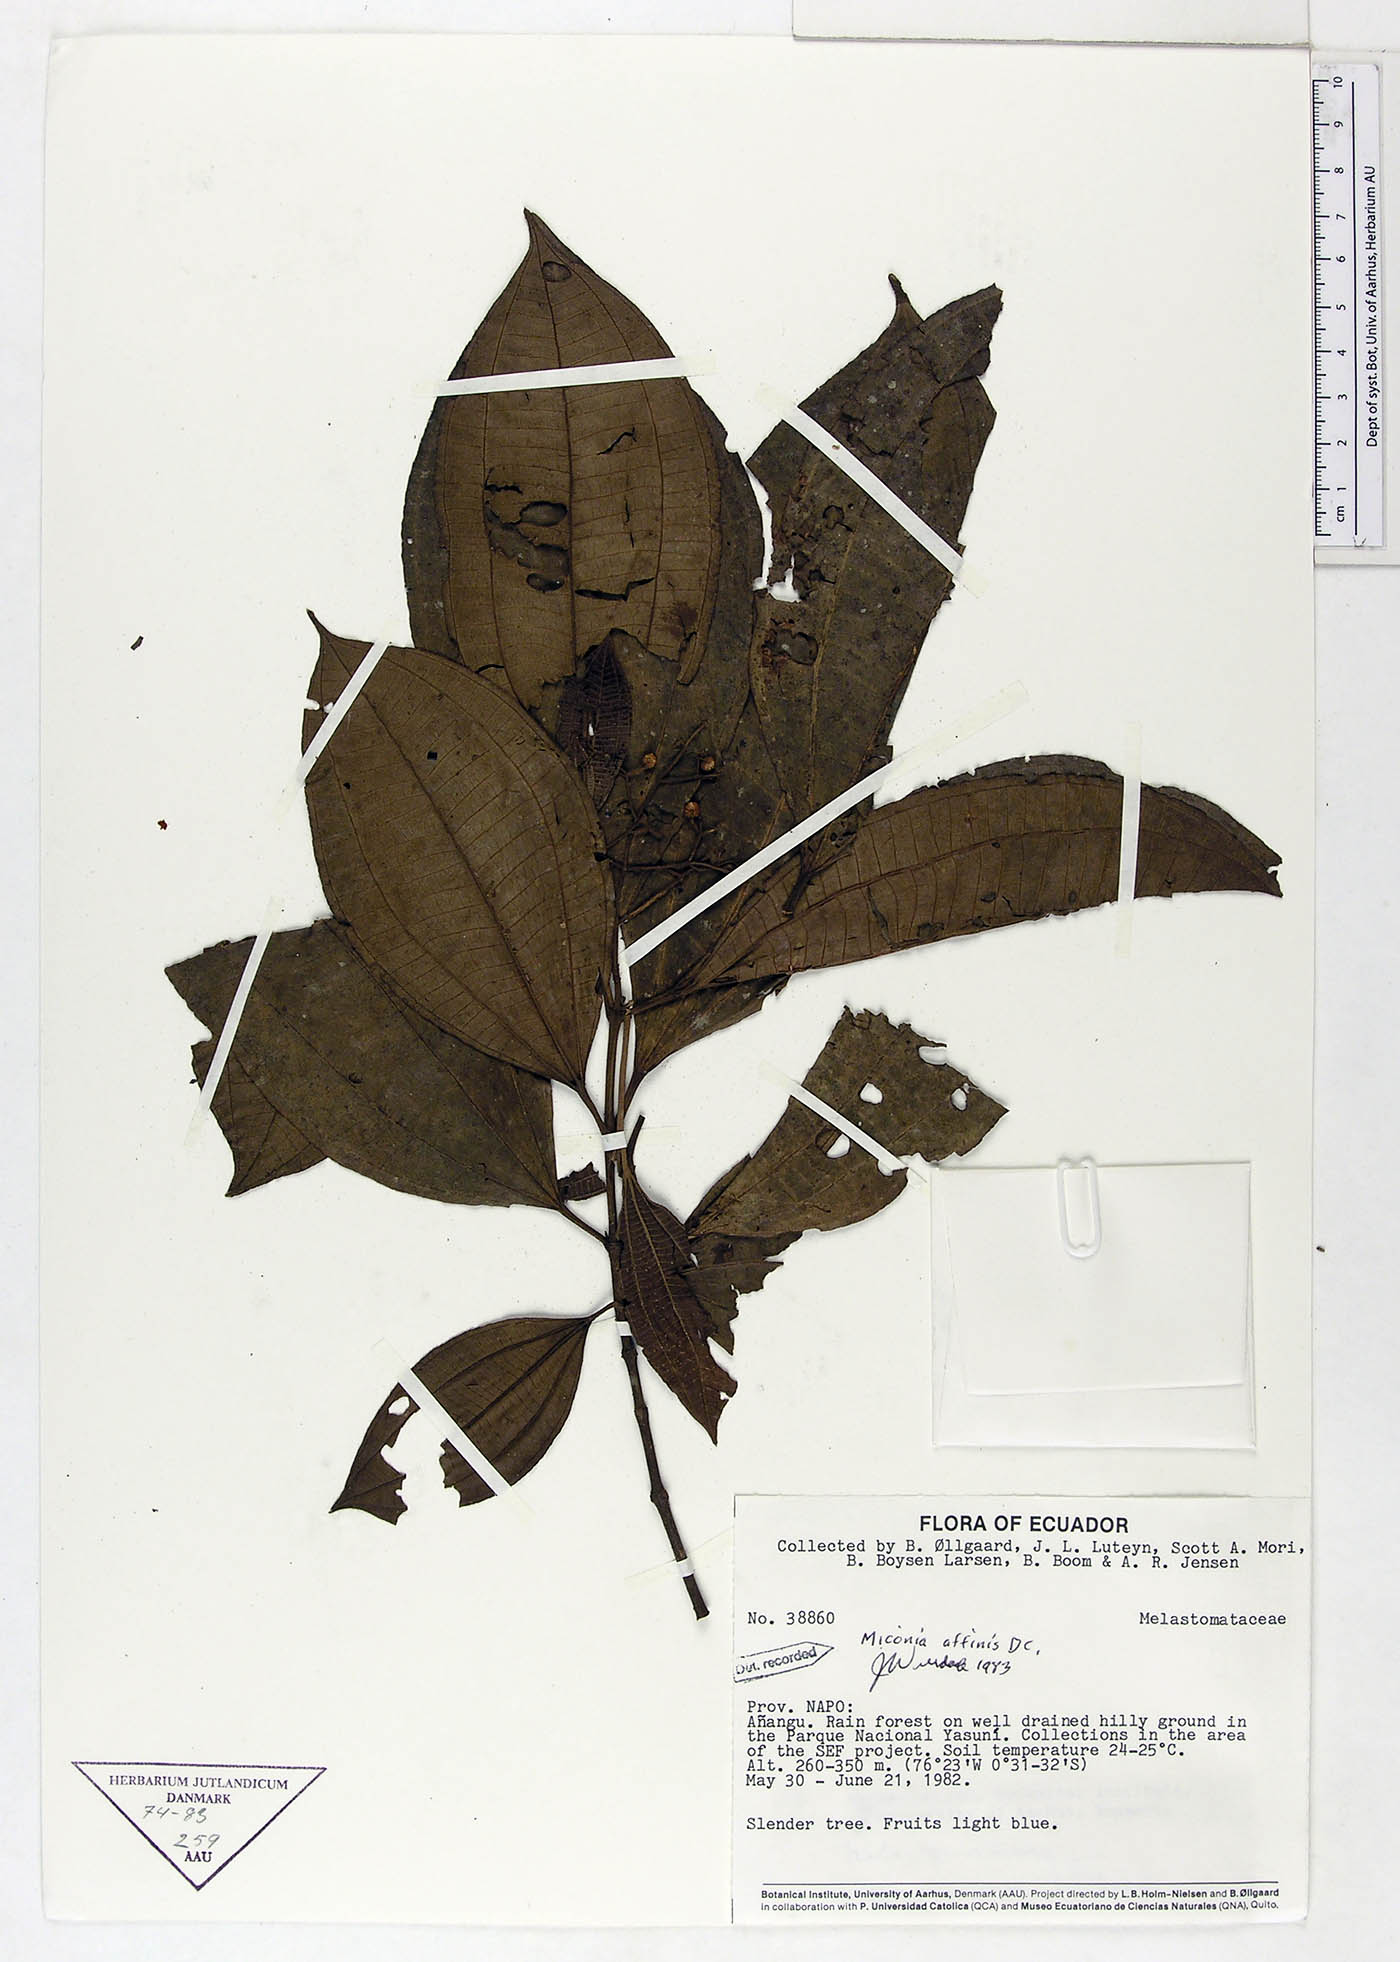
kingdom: Plantae
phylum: Tracheophyta
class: Magnoliopsida
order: Myrtales
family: Melastomataceae
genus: Miconia
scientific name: Miconia affinis
